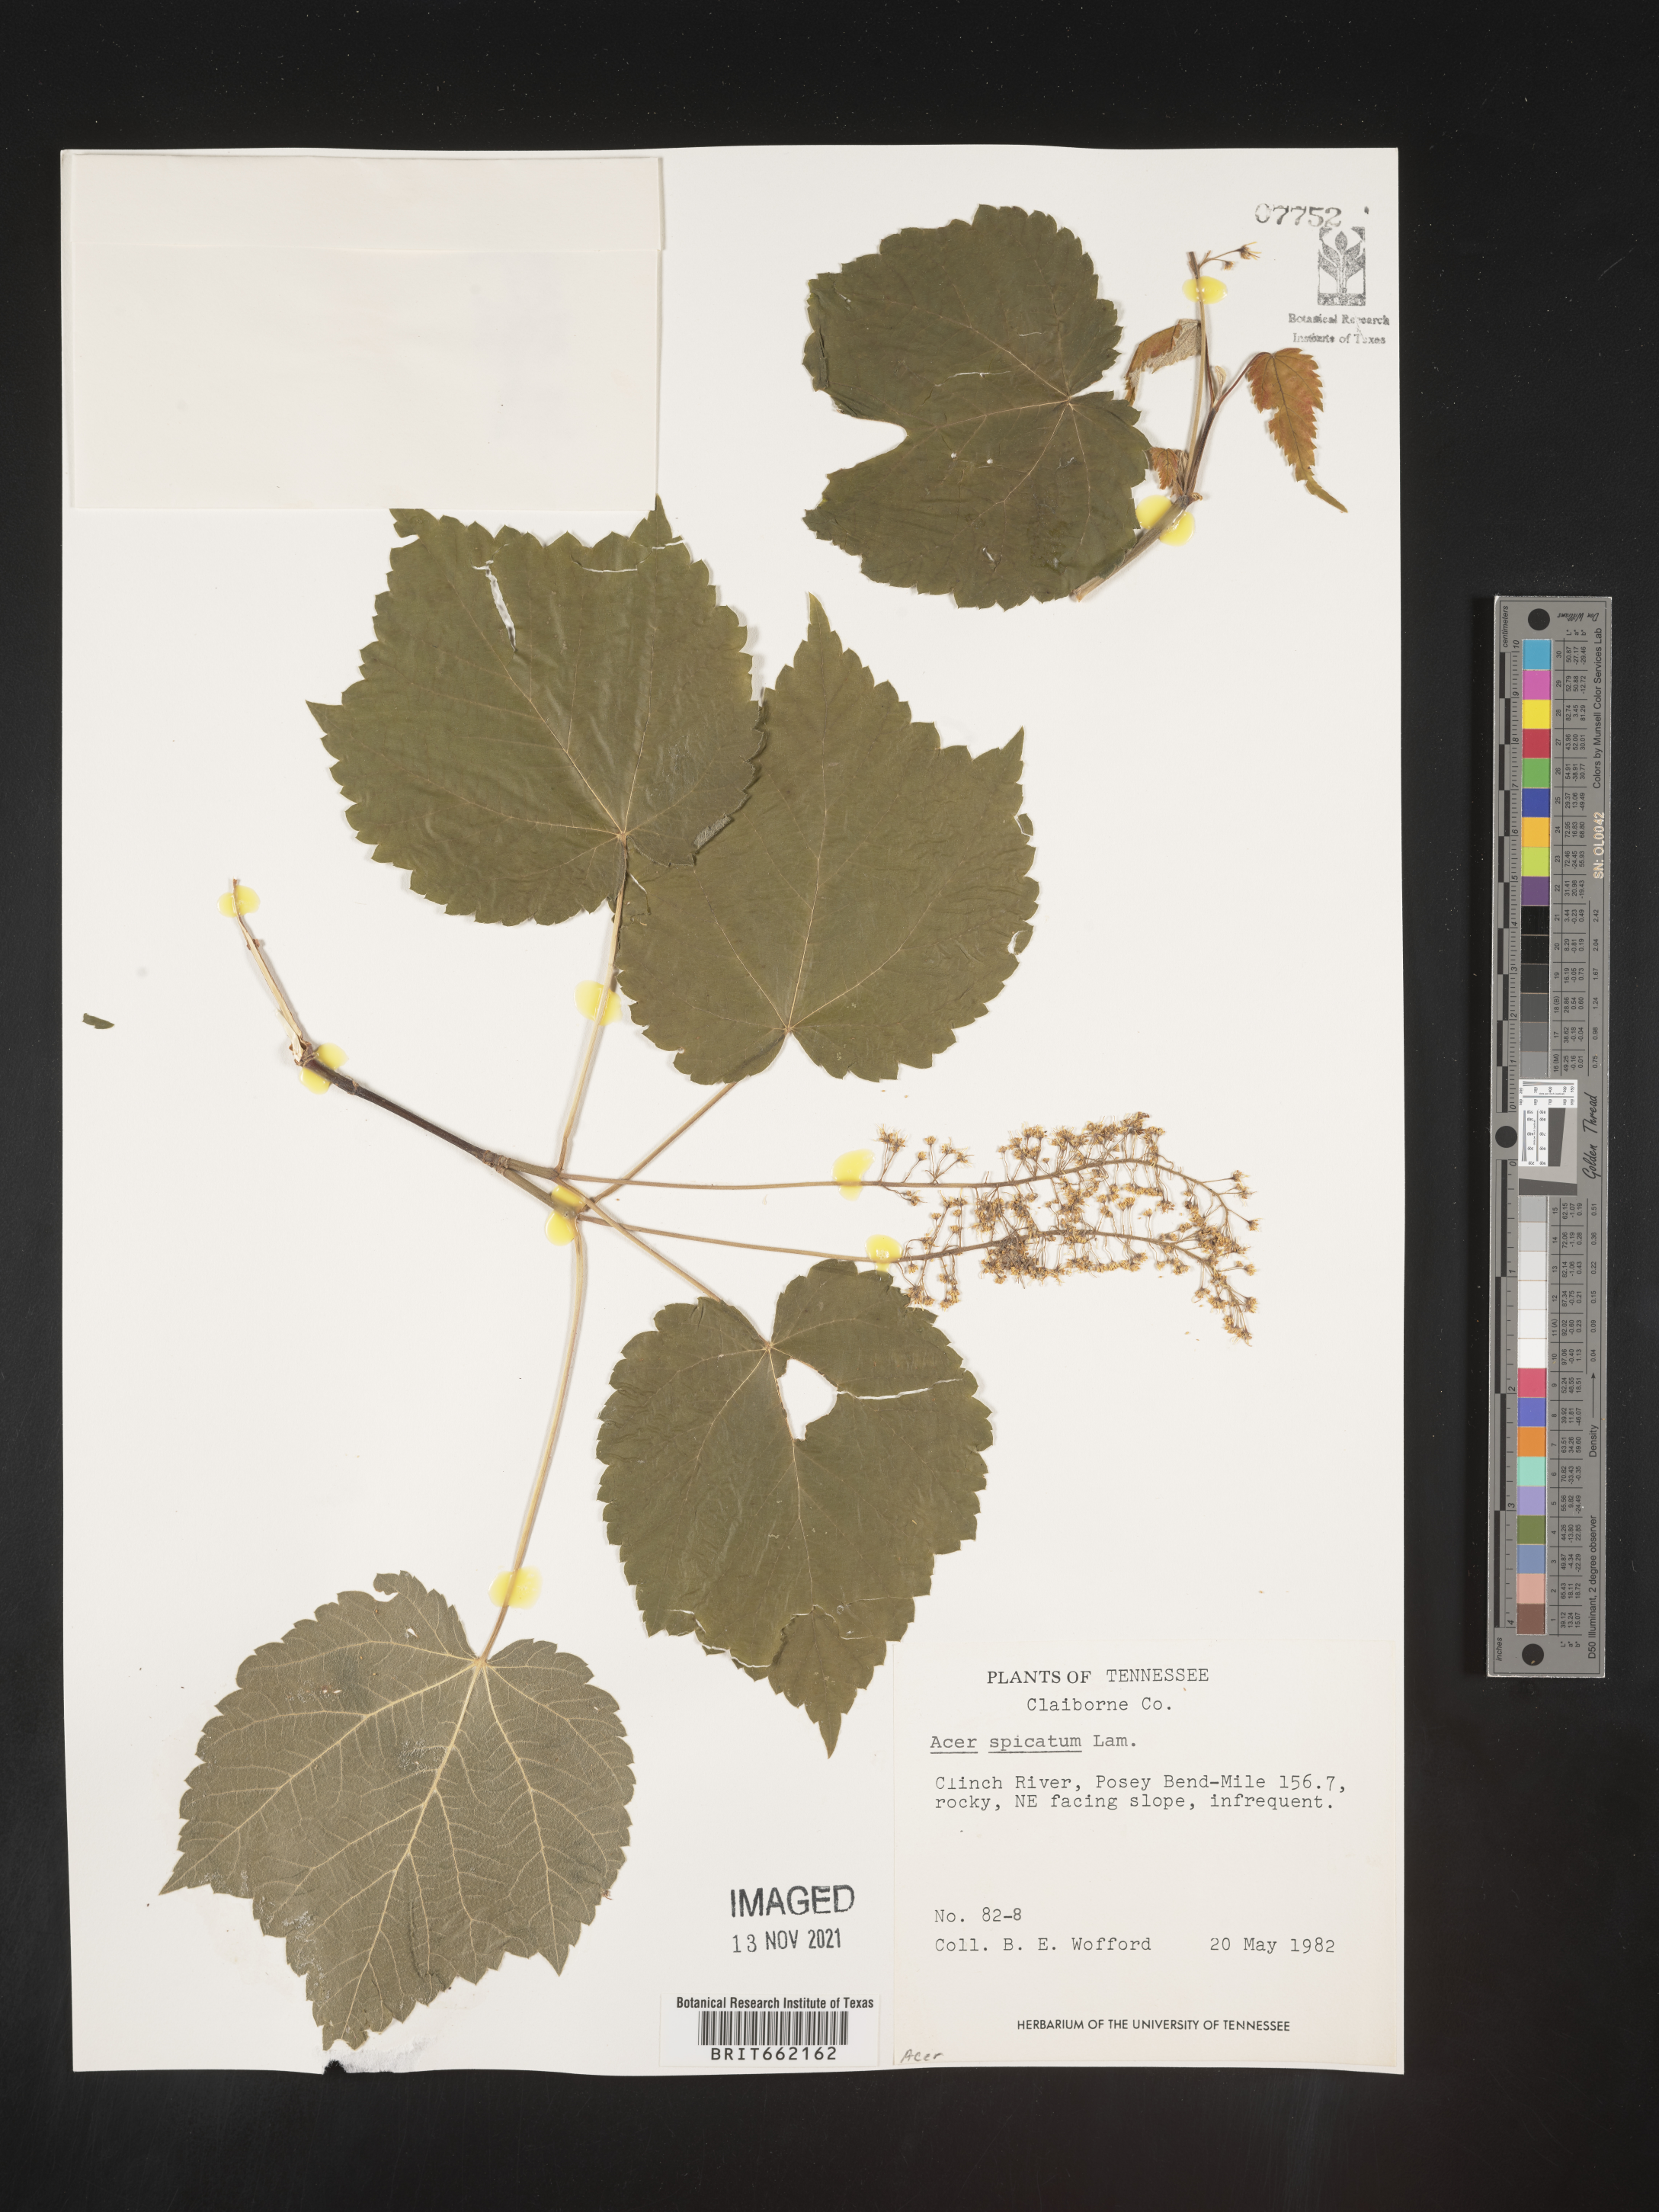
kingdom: Plantae
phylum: Tracheophyta
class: Magnoliopsida
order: Sapindales
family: Sapindaceae
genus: Acer
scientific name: Acer spicatum
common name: Mountain maple
